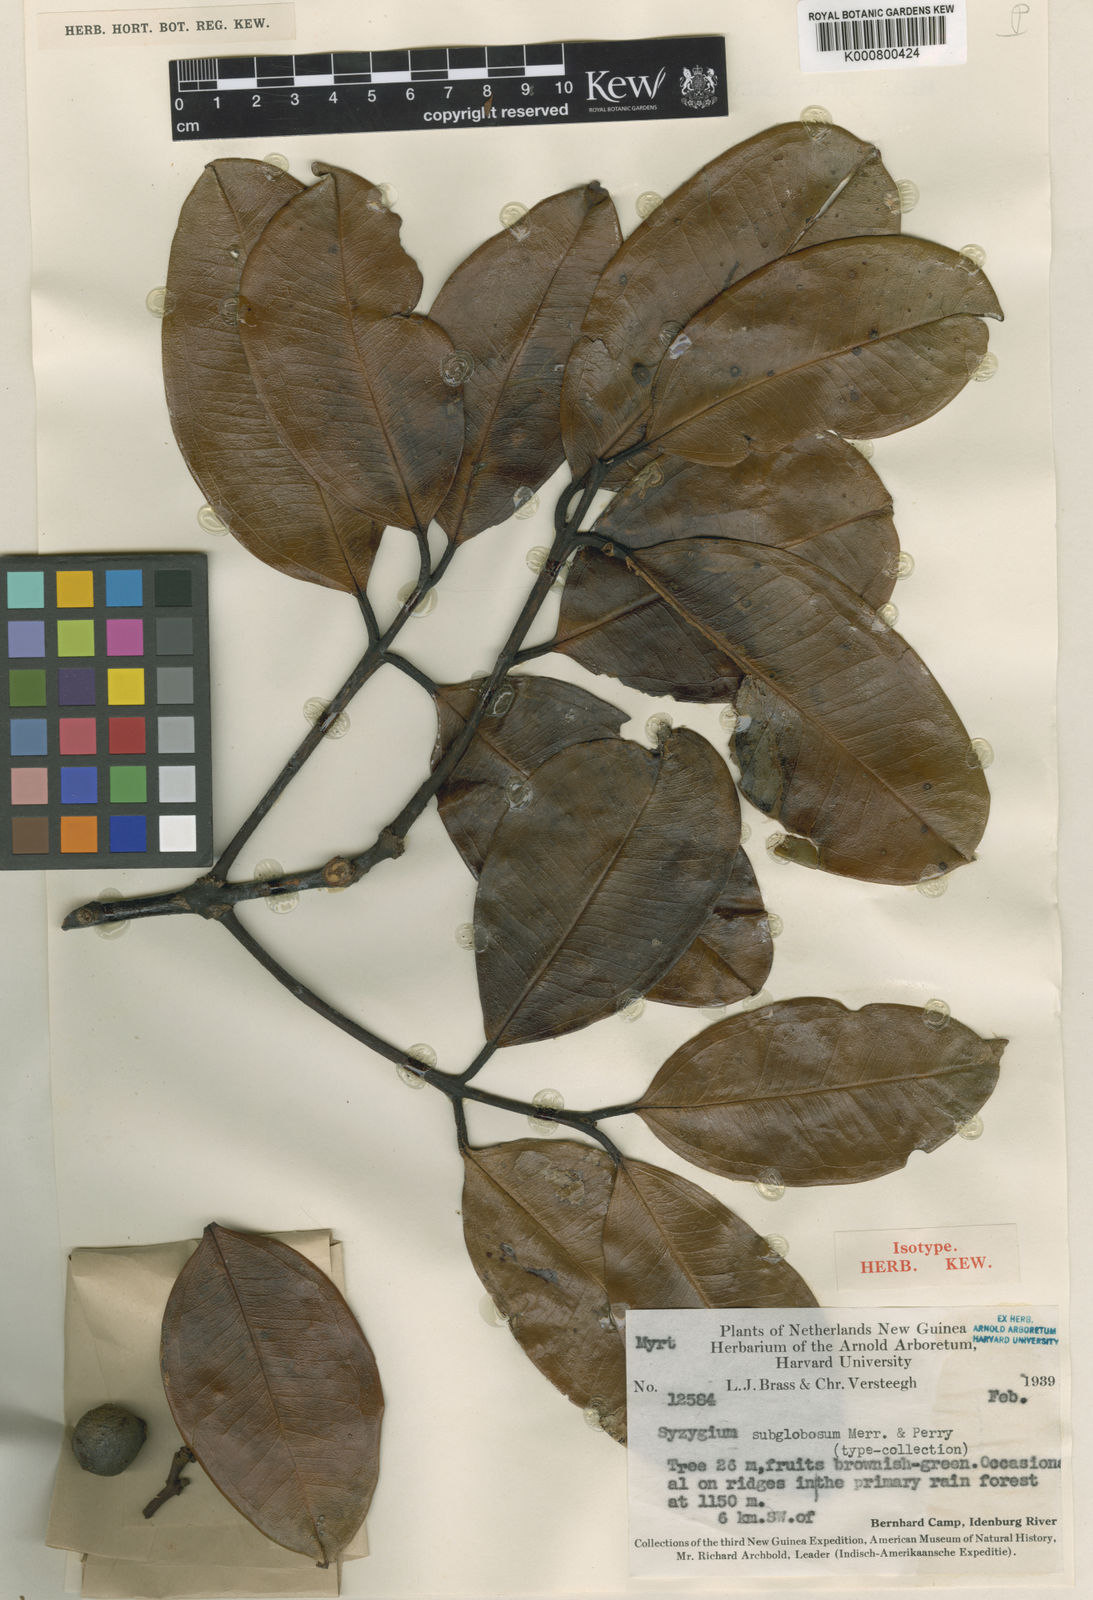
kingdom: Plantae
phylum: Tracheophyta
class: Magnoliopsida
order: Myrtales
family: Myrtaceae
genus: Syzygium
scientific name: Syzygium subglobosum
